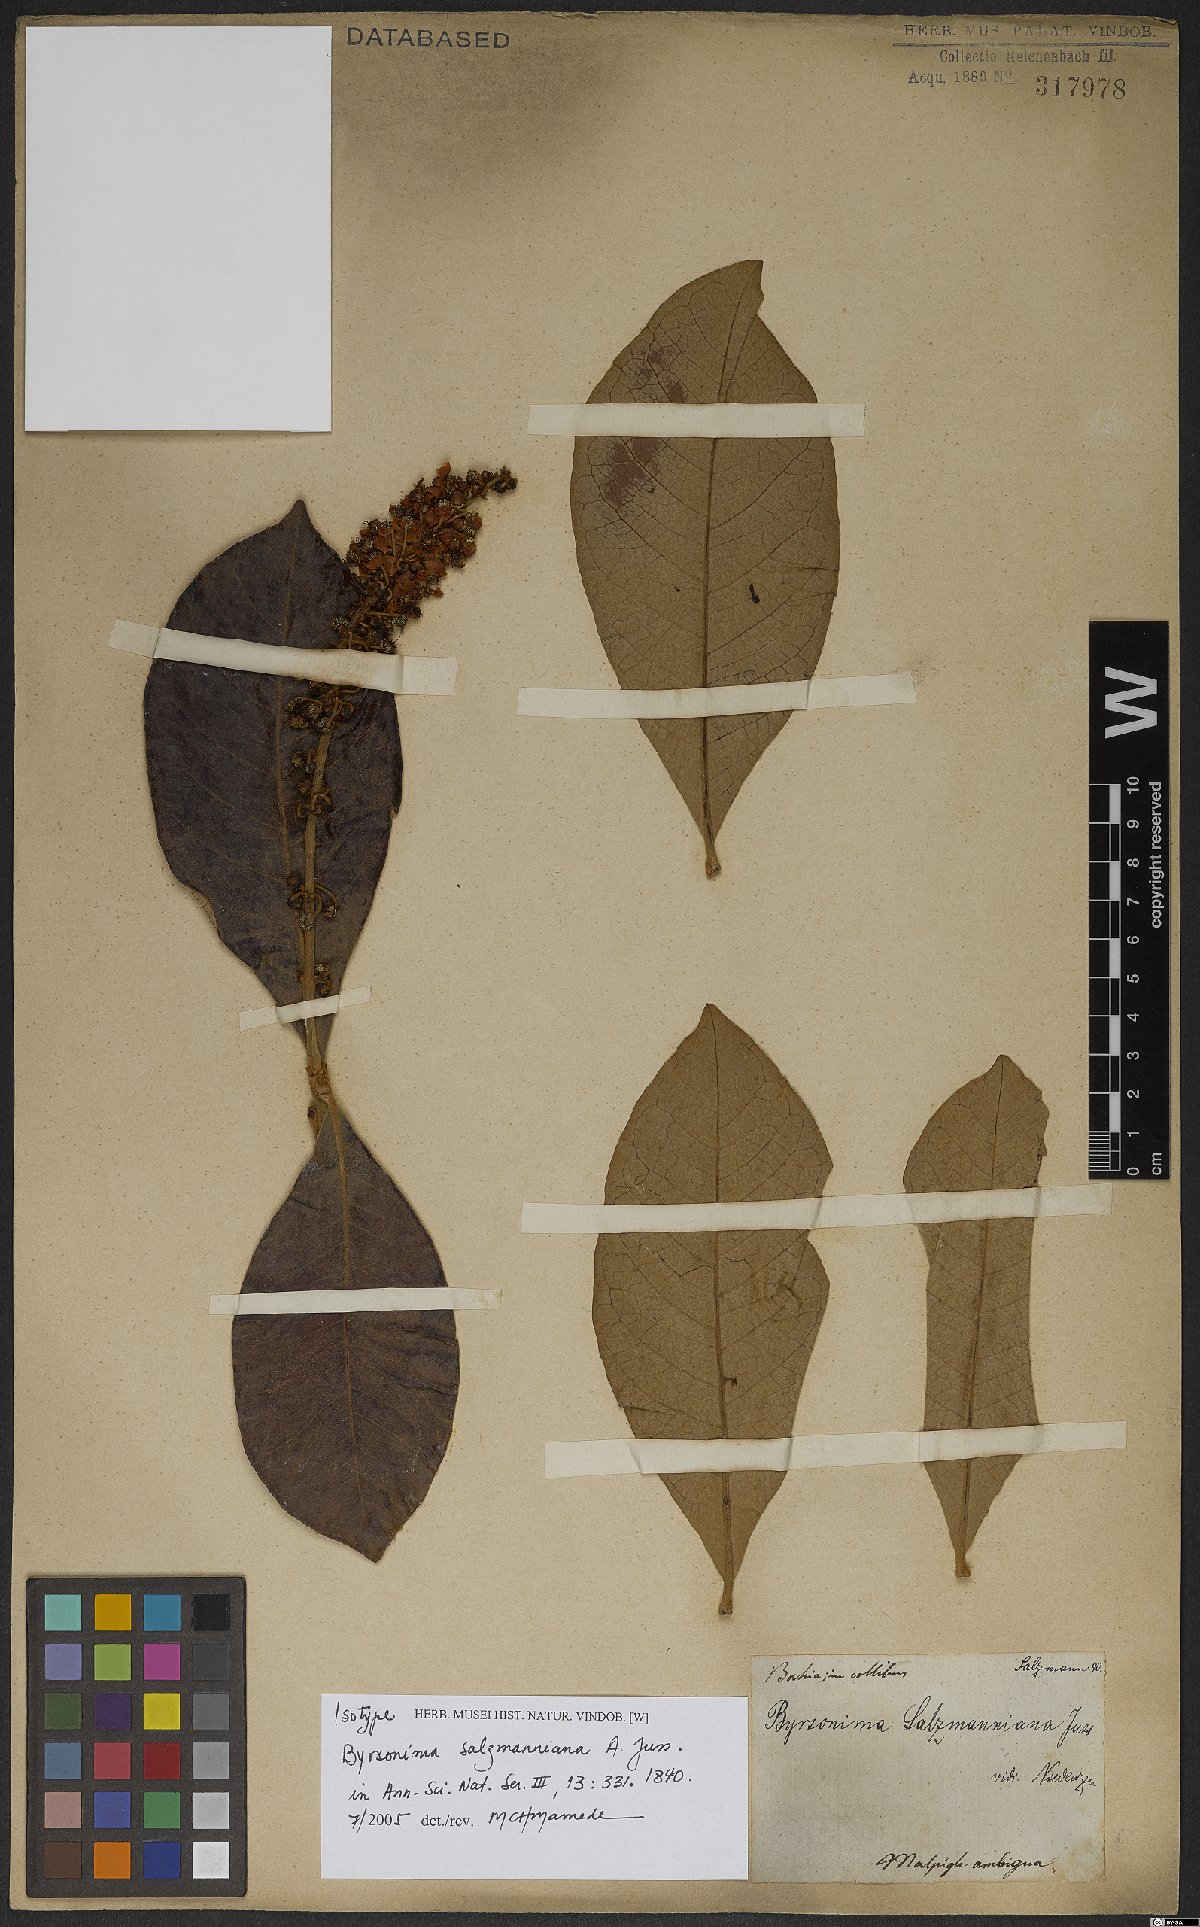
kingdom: Plantae
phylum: Tracheophyta
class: Magnoliopsida
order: Malpighiales
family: Malpighiaceae
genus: Byrsonima
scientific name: Byrsonima salzmanniana
